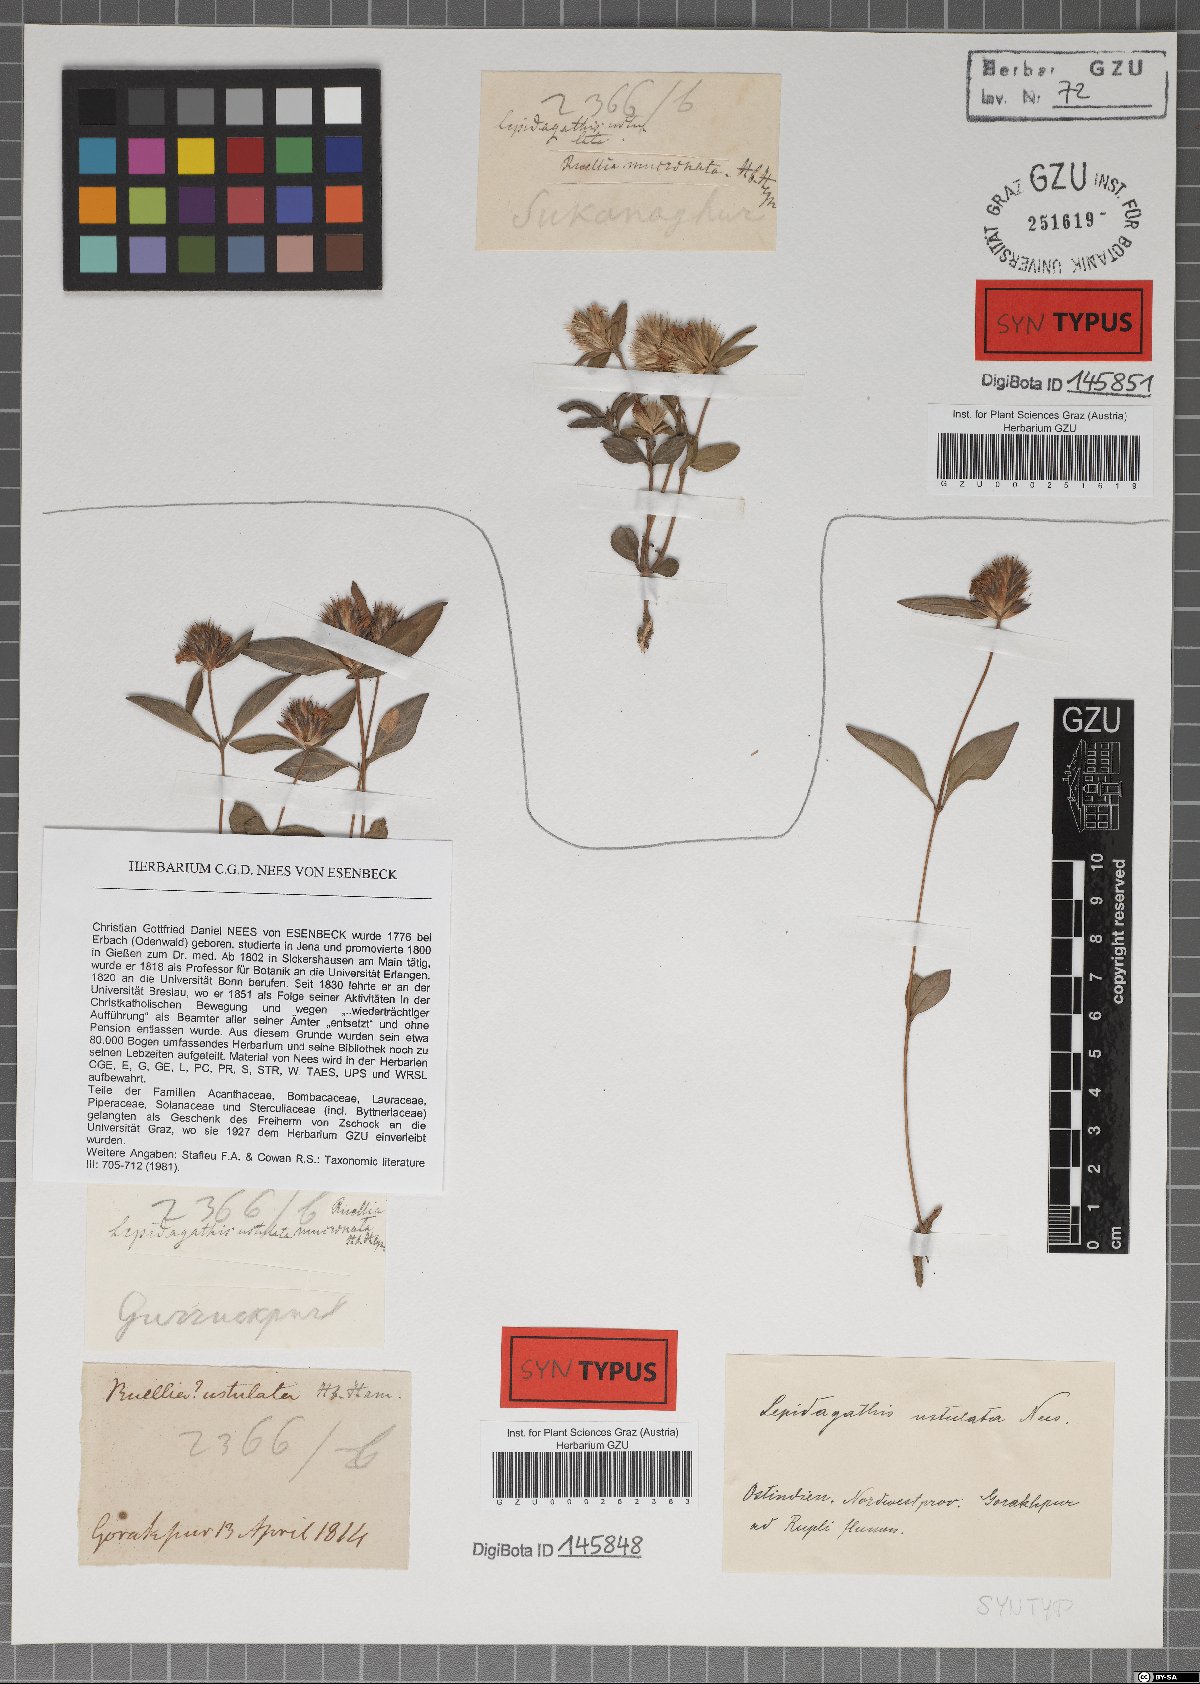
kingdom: Plantae
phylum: Tracheophyta
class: Magnoliopsida
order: Lamiales
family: Acanthaceae
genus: Lepidagathis
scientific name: Lepidagathis incurva
